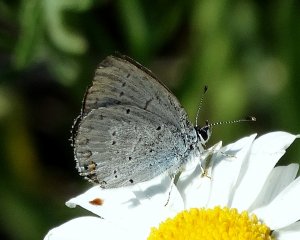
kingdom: Animalia
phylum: Arthropoda
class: Insecta
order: Lepidoptera
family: Lycaenidae
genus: Elkalyce
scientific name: Elkalyce amyntula
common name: Western Tailed-Blue
